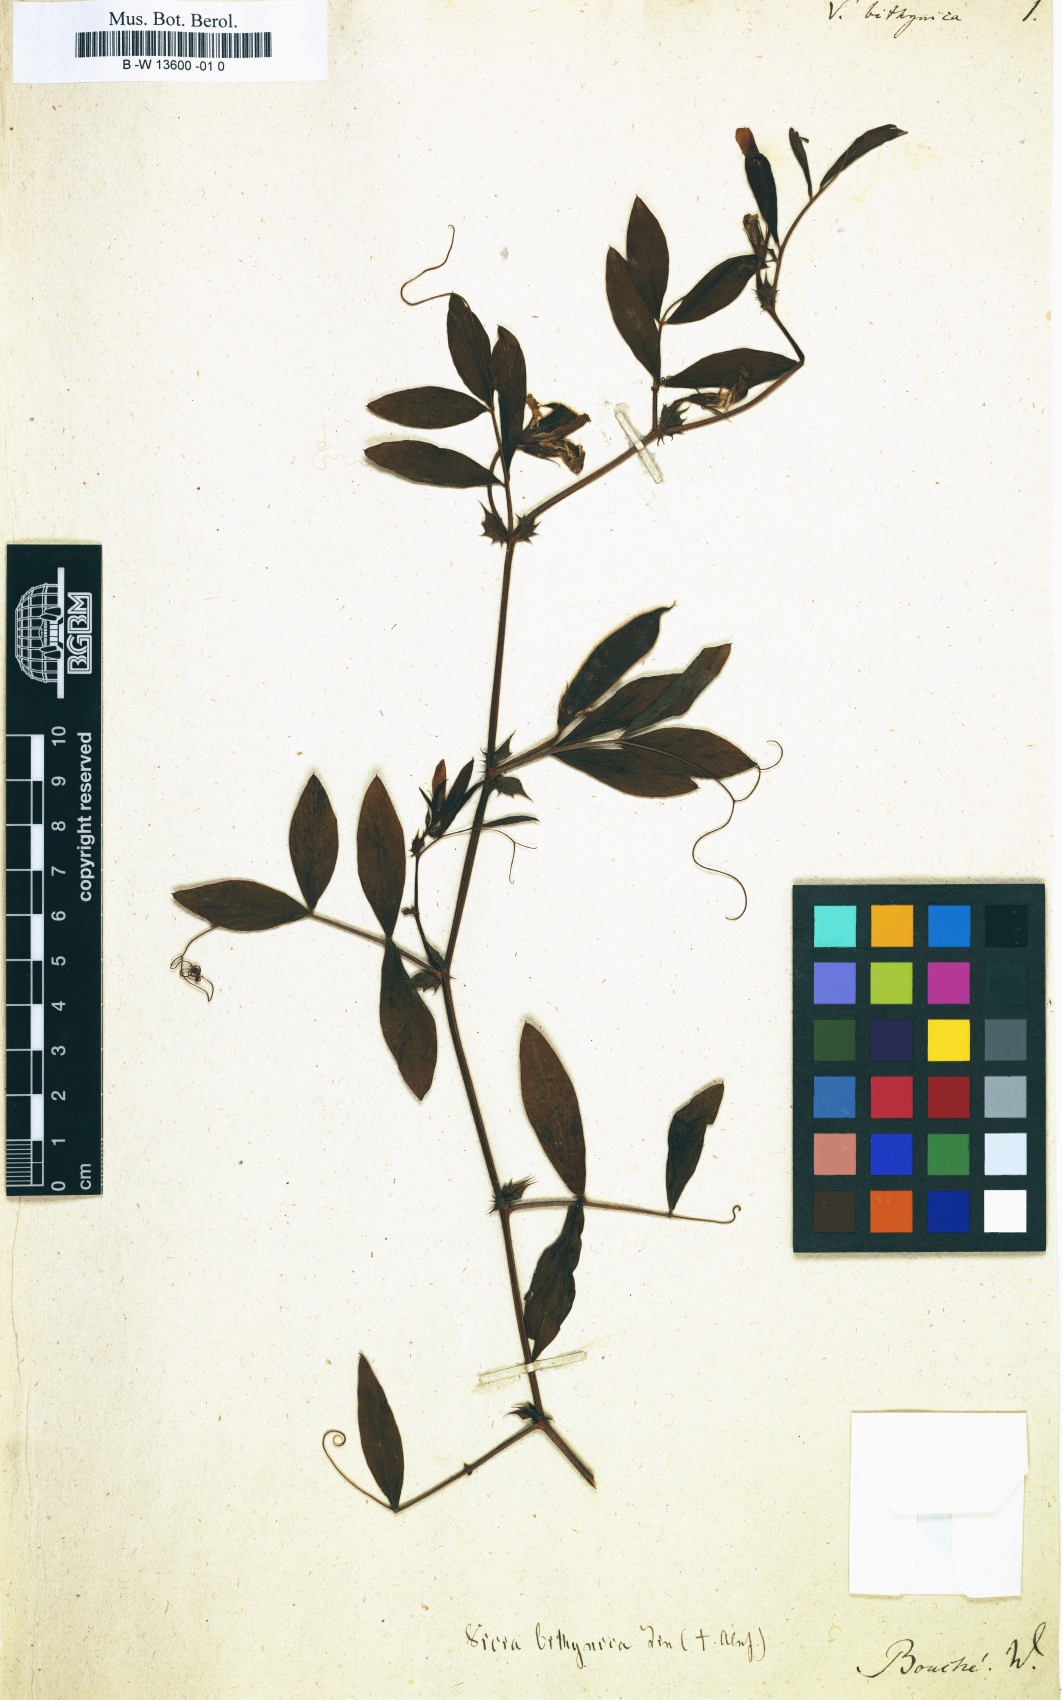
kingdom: Plantae
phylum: Tracheophyta
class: Magnoliopsida
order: Fabales
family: Fabaceae
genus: Vicia
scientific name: Vicia bithynica
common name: Bithynian vetch
